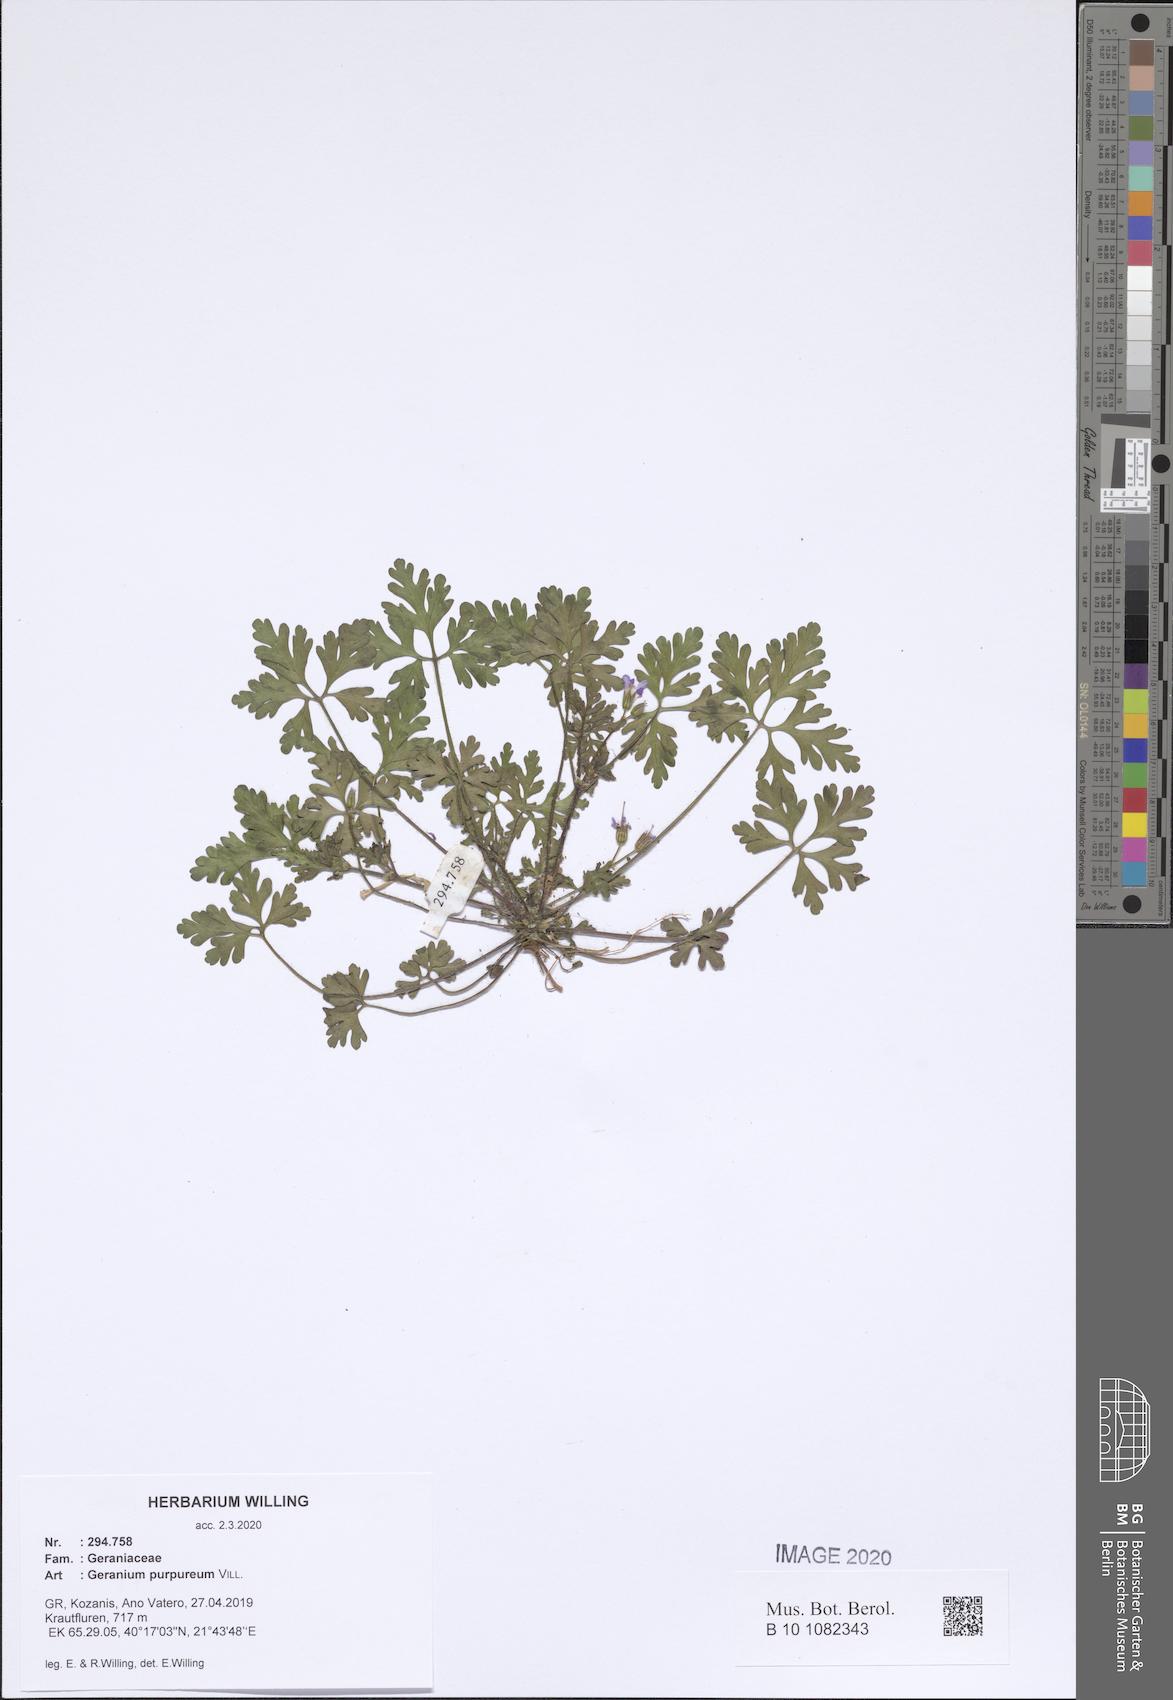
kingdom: Plantae
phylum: Tracheophyta
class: Magnoliopsida
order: Geraniales
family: Geraniaceae
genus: Geranium
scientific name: Geranium purpureum
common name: Little-robin
